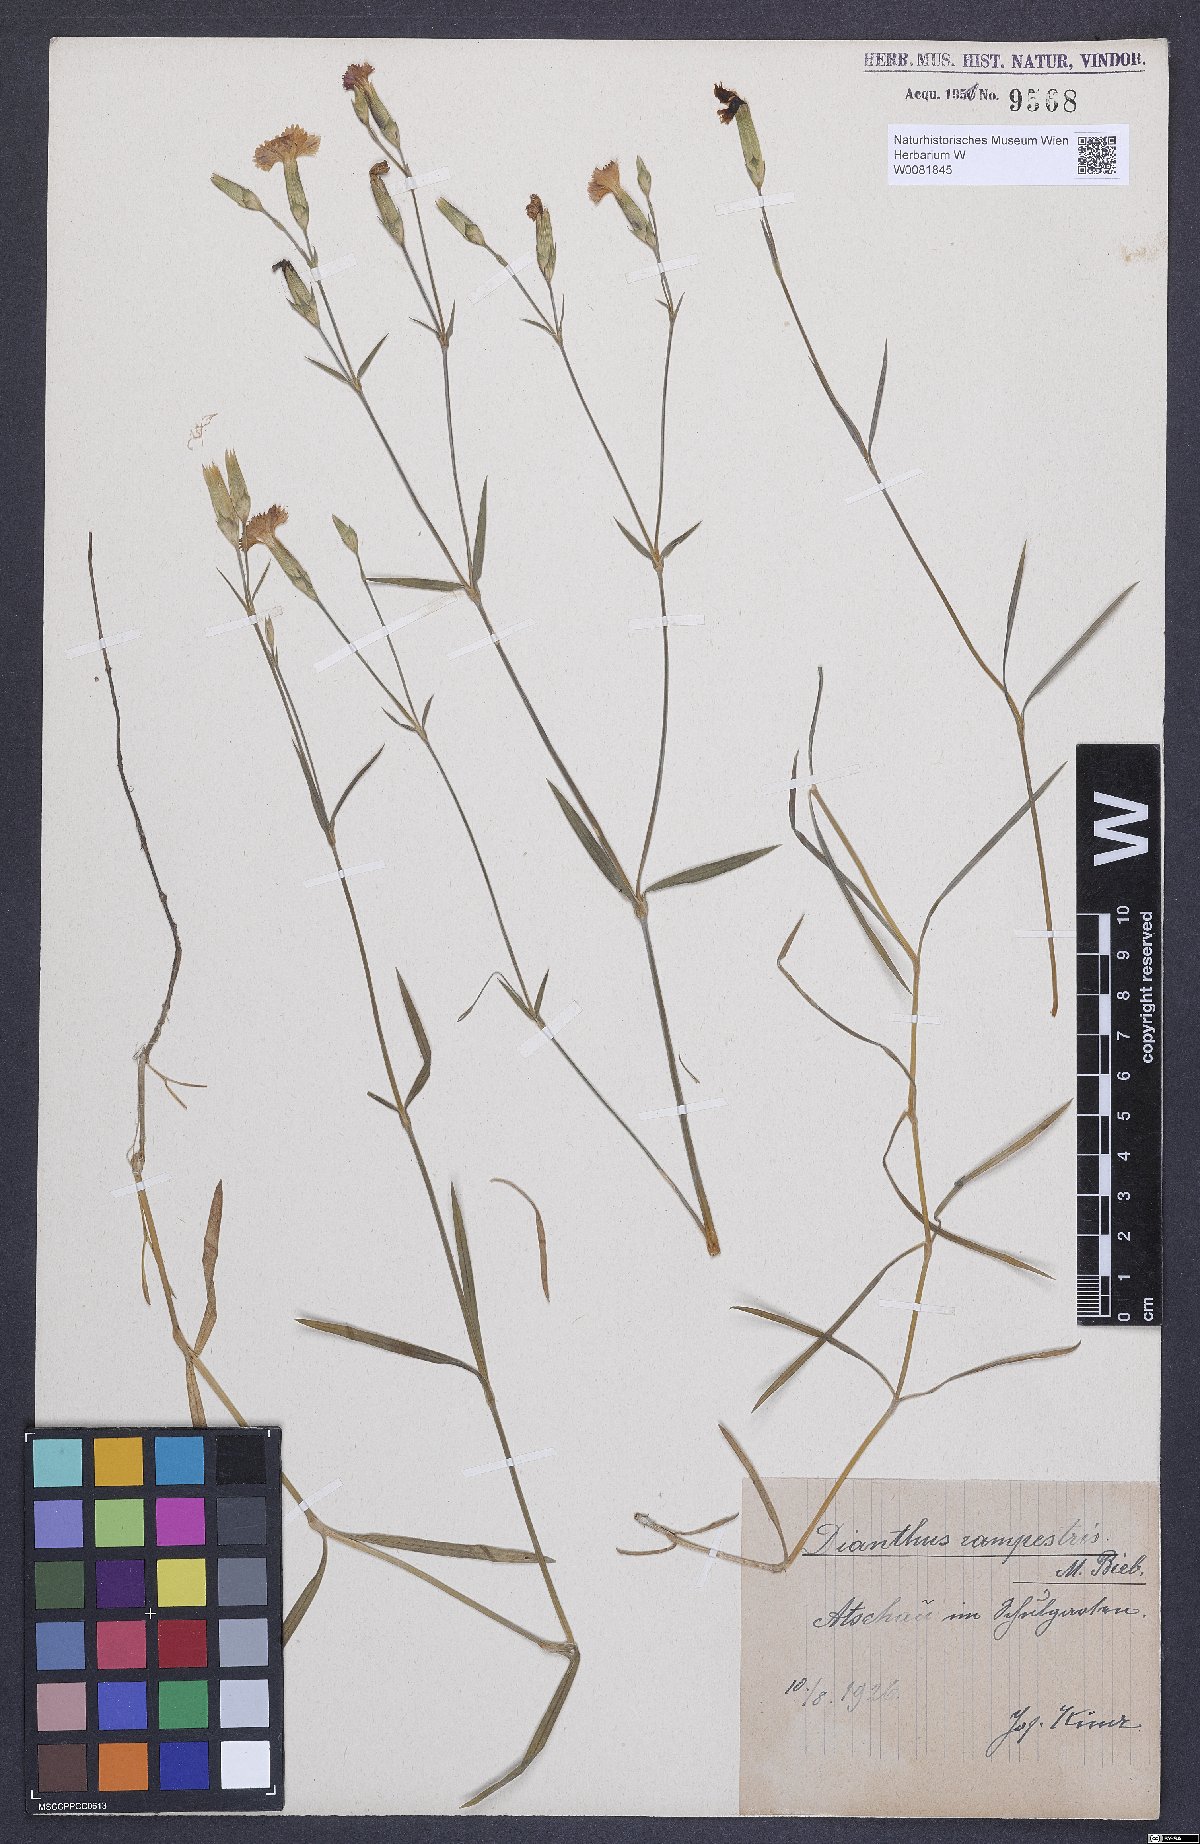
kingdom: Plantae
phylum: Tracheophyta
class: Magnoliopsida
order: Caryophyllales
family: Caryophyllaceae
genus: Dianthus
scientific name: Dianthus campestris
